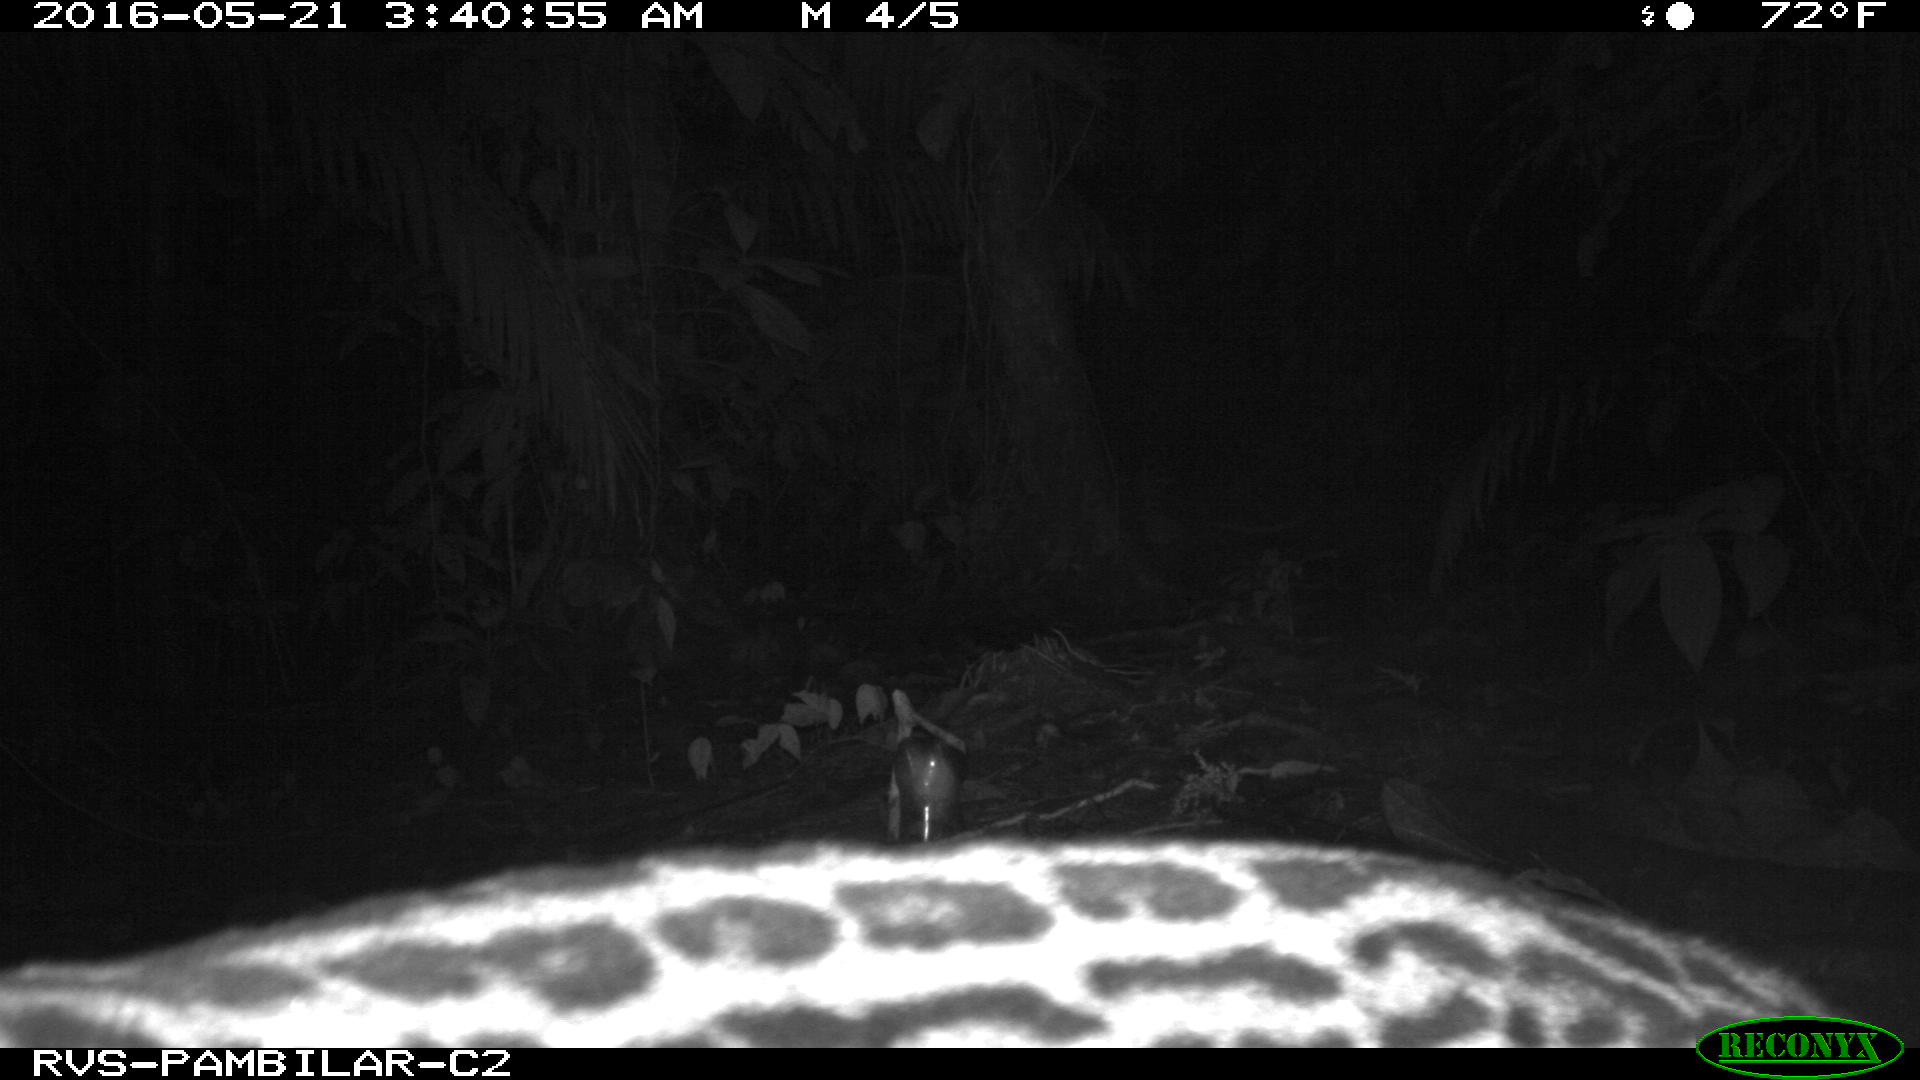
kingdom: Animalia
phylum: Chordata
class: Mammalia
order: Carnivora
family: Felidae
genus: Leopardus
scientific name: Leopardus pardalis
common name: Ocelot
